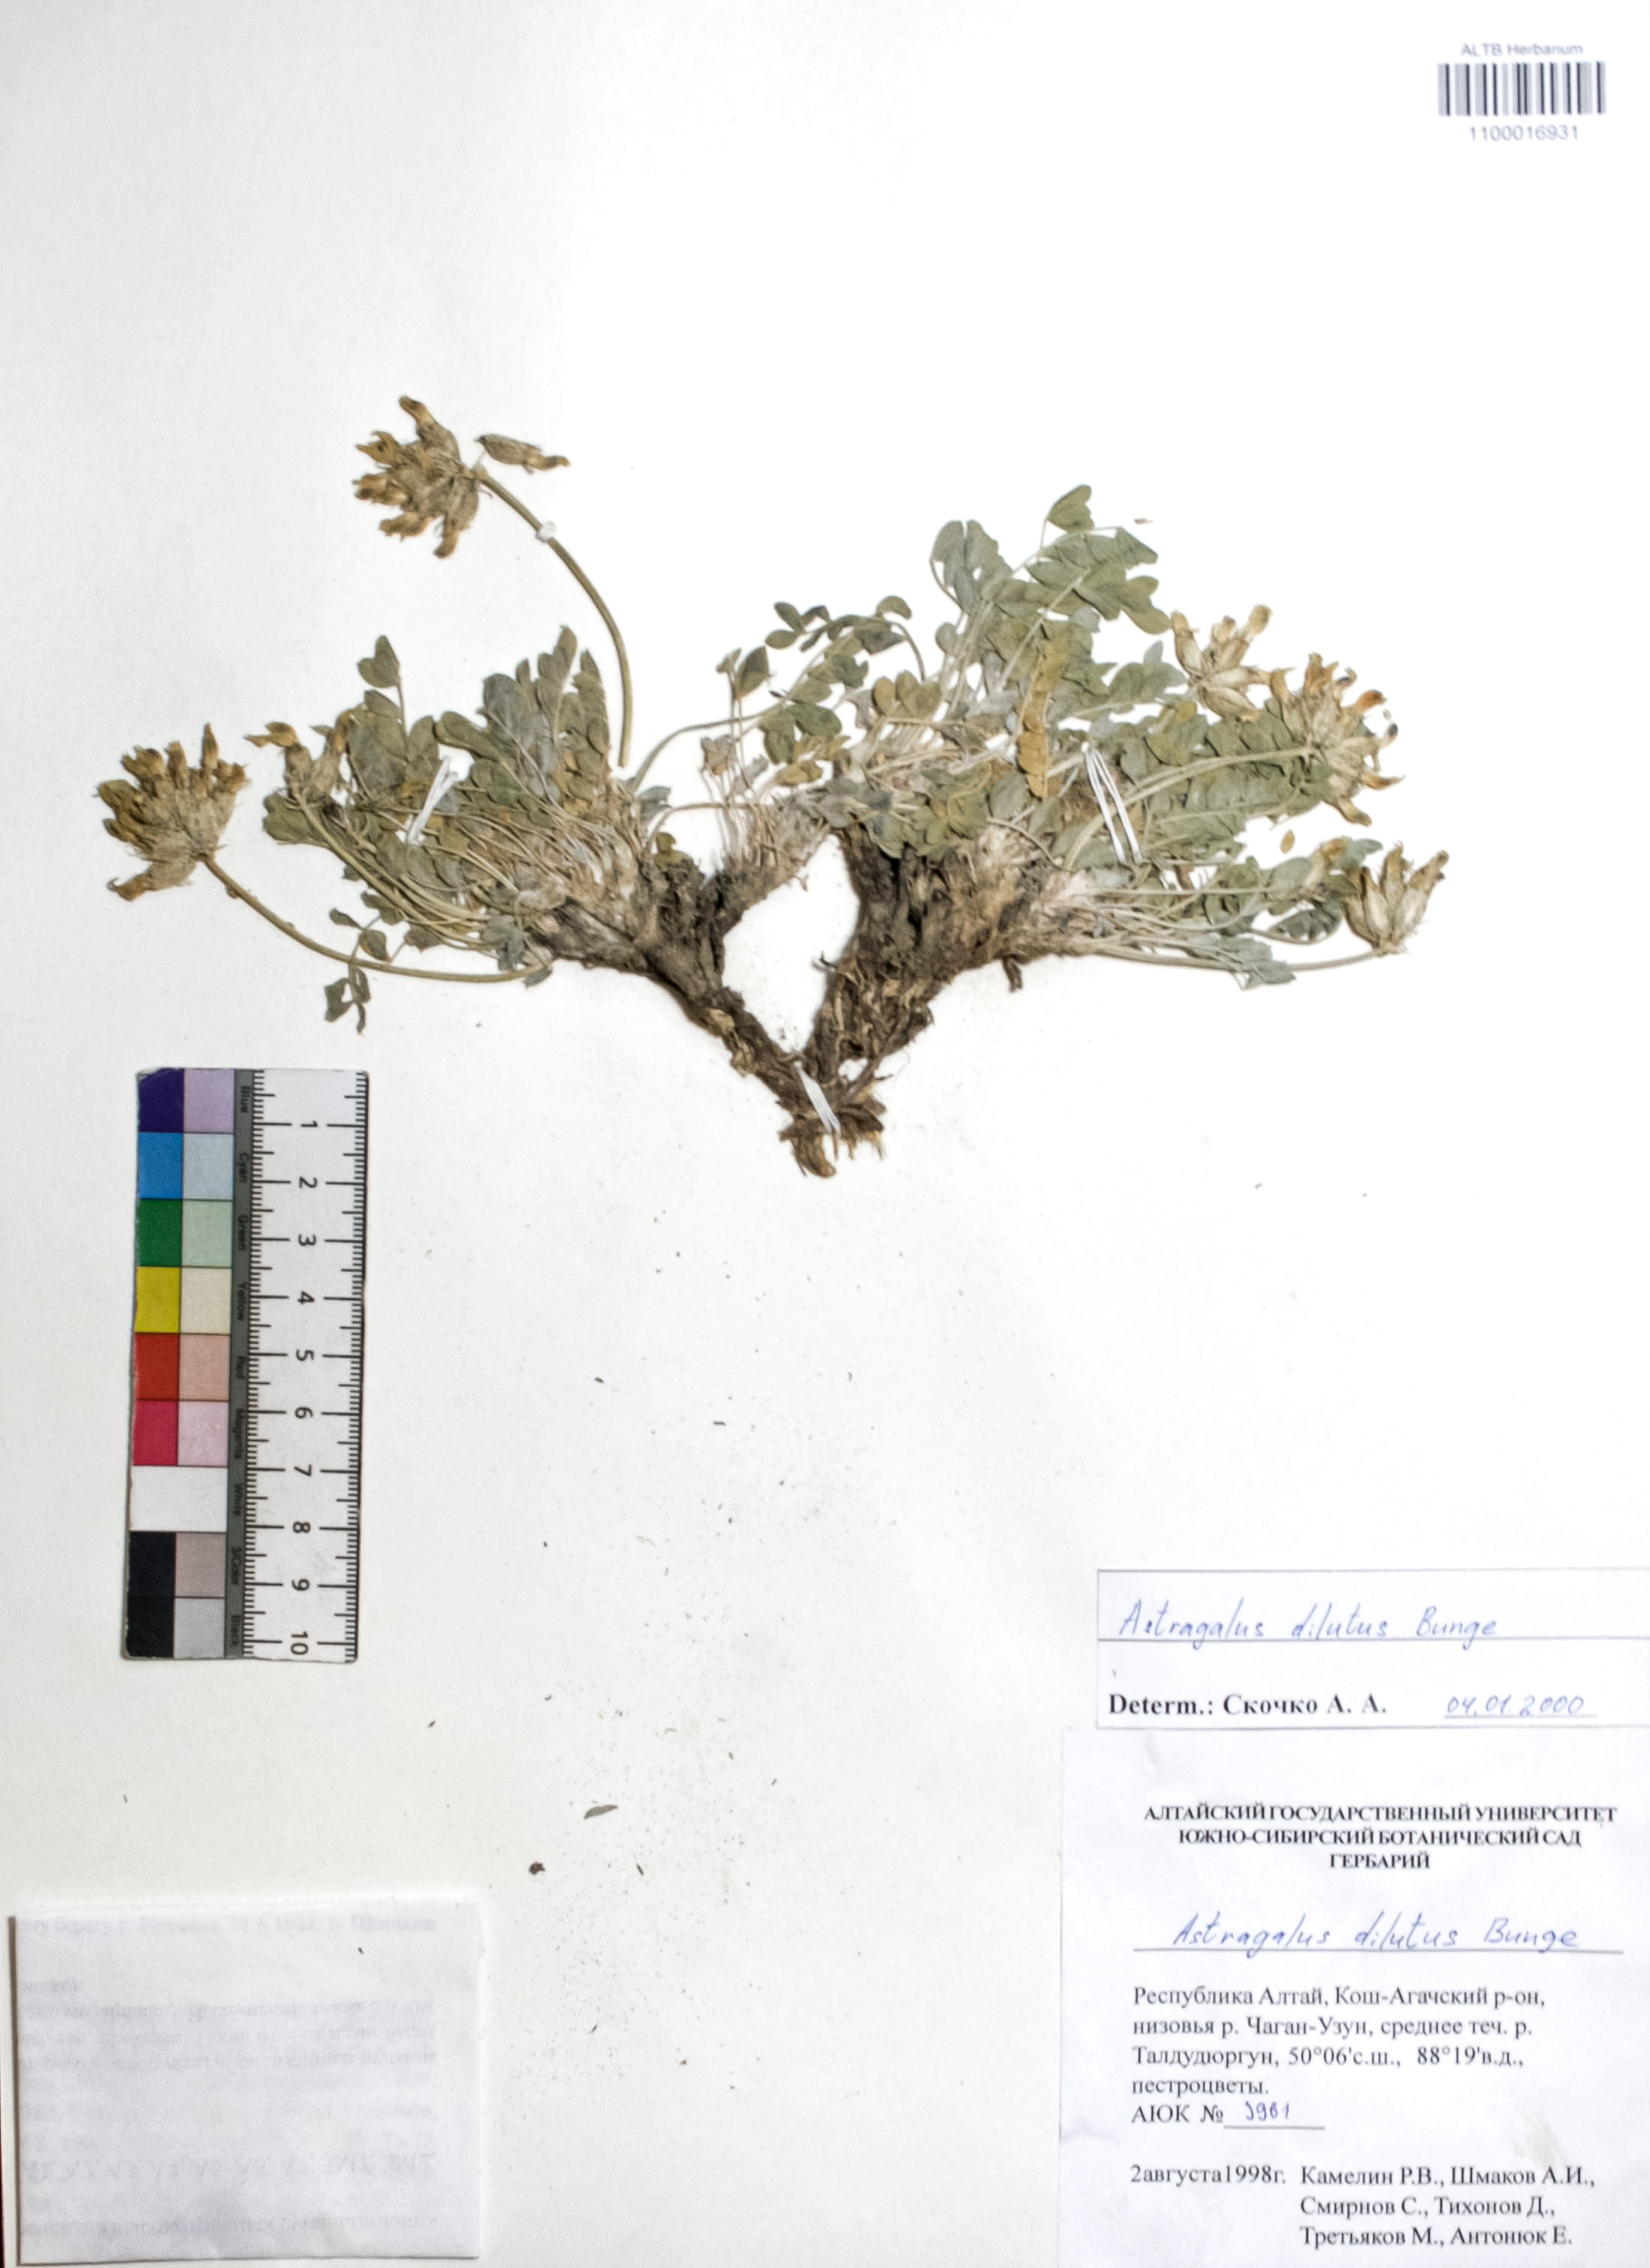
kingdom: Plantae
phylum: Tracheophyta
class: Magnoliopsida
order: Fabales
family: Fabaceae
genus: Astragalus
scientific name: Astragalus dilutus
